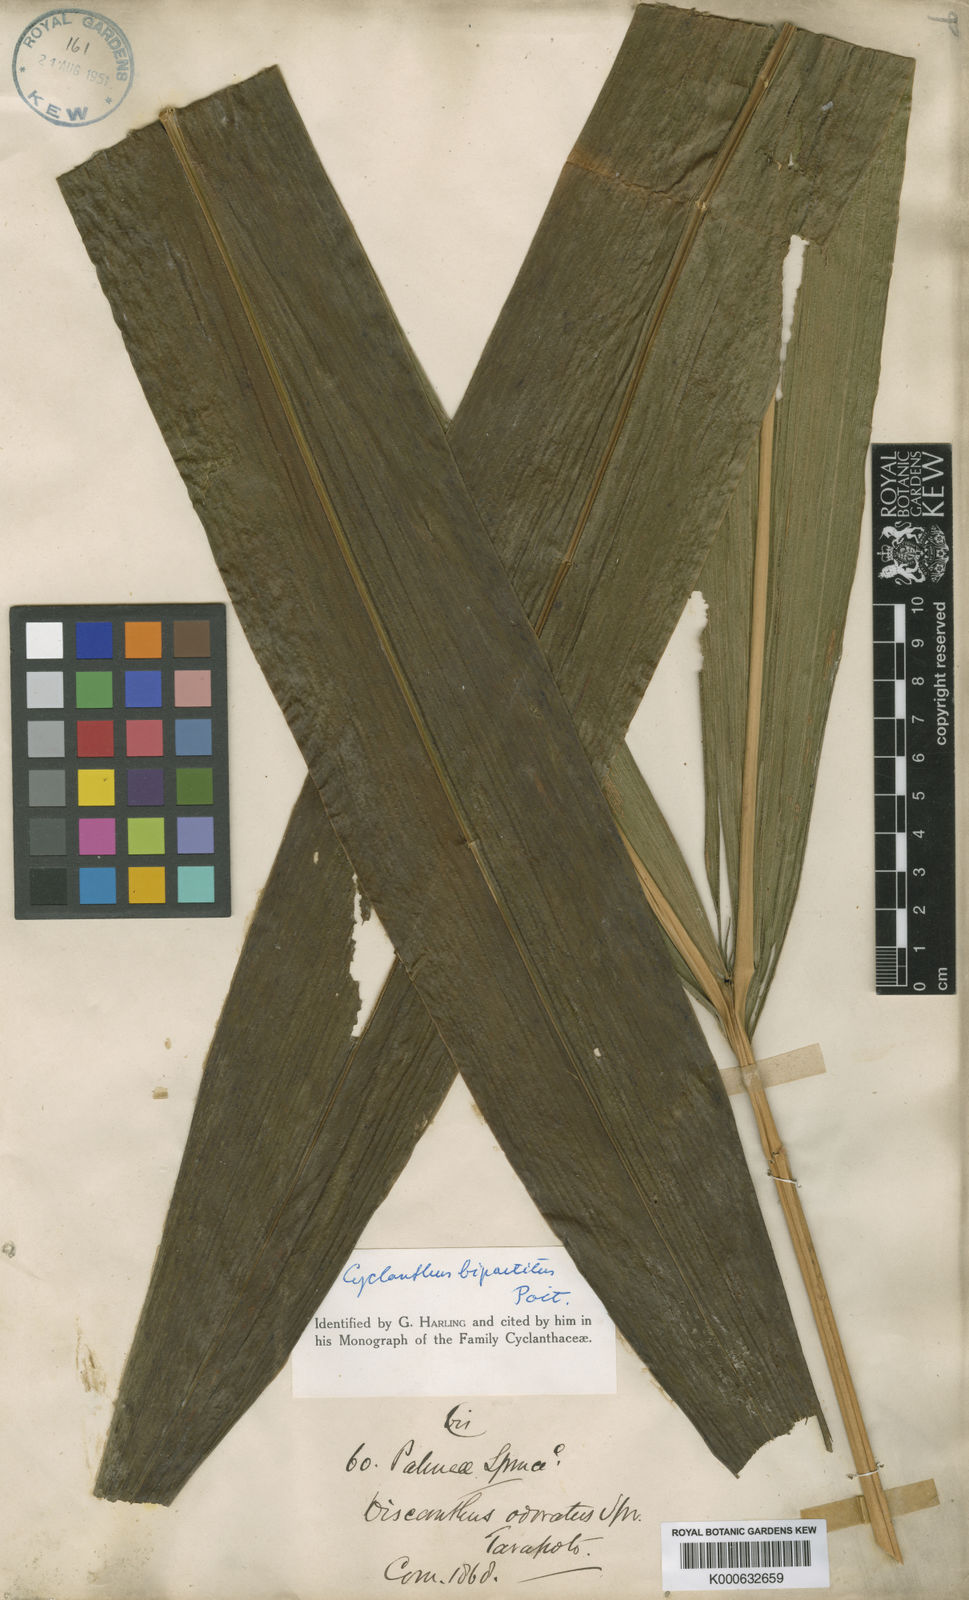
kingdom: Plantae
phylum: Tracheophyta
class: Liliopsida
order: Pandanales
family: Cyclanthaceae
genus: Cyclanthus
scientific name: Cyclanthus bipartitus
